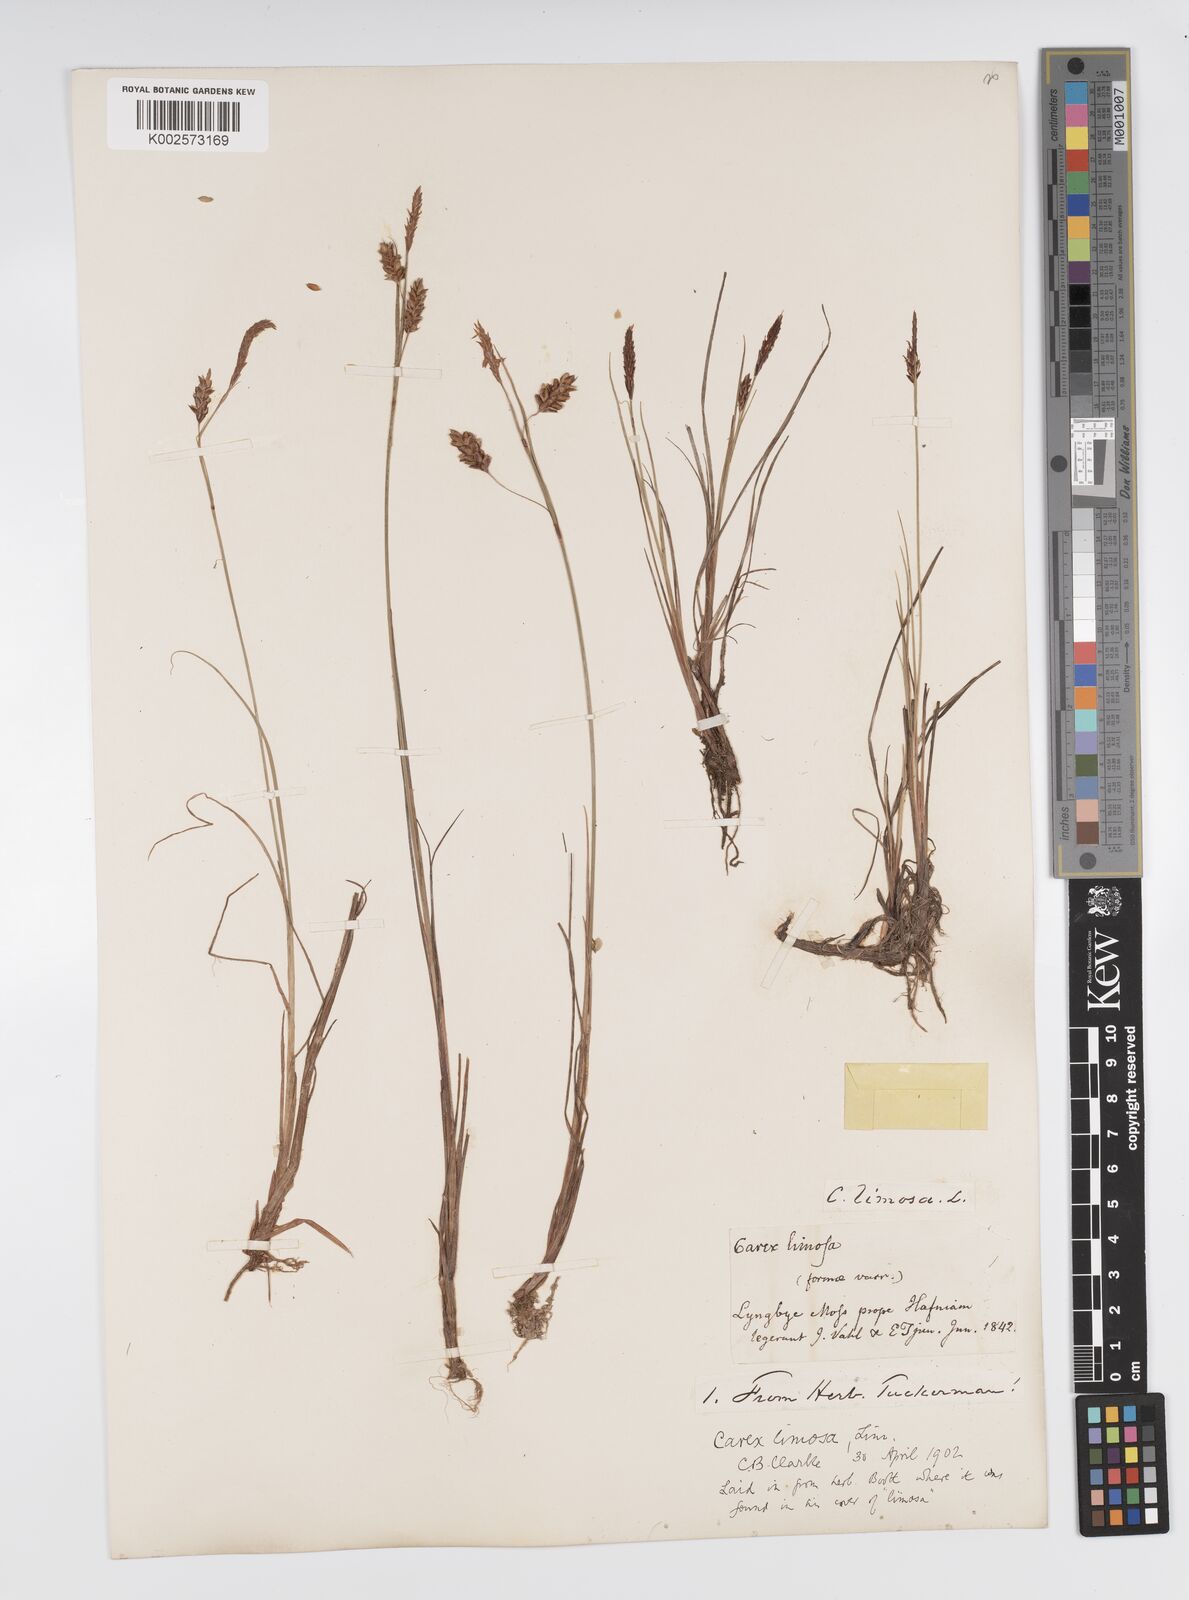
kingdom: Plantae
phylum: Tracheophyta
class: Liliopsida
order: Poales
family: Cyperaceae
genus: Carex
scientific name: Carex limosa
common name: Bog sedge
